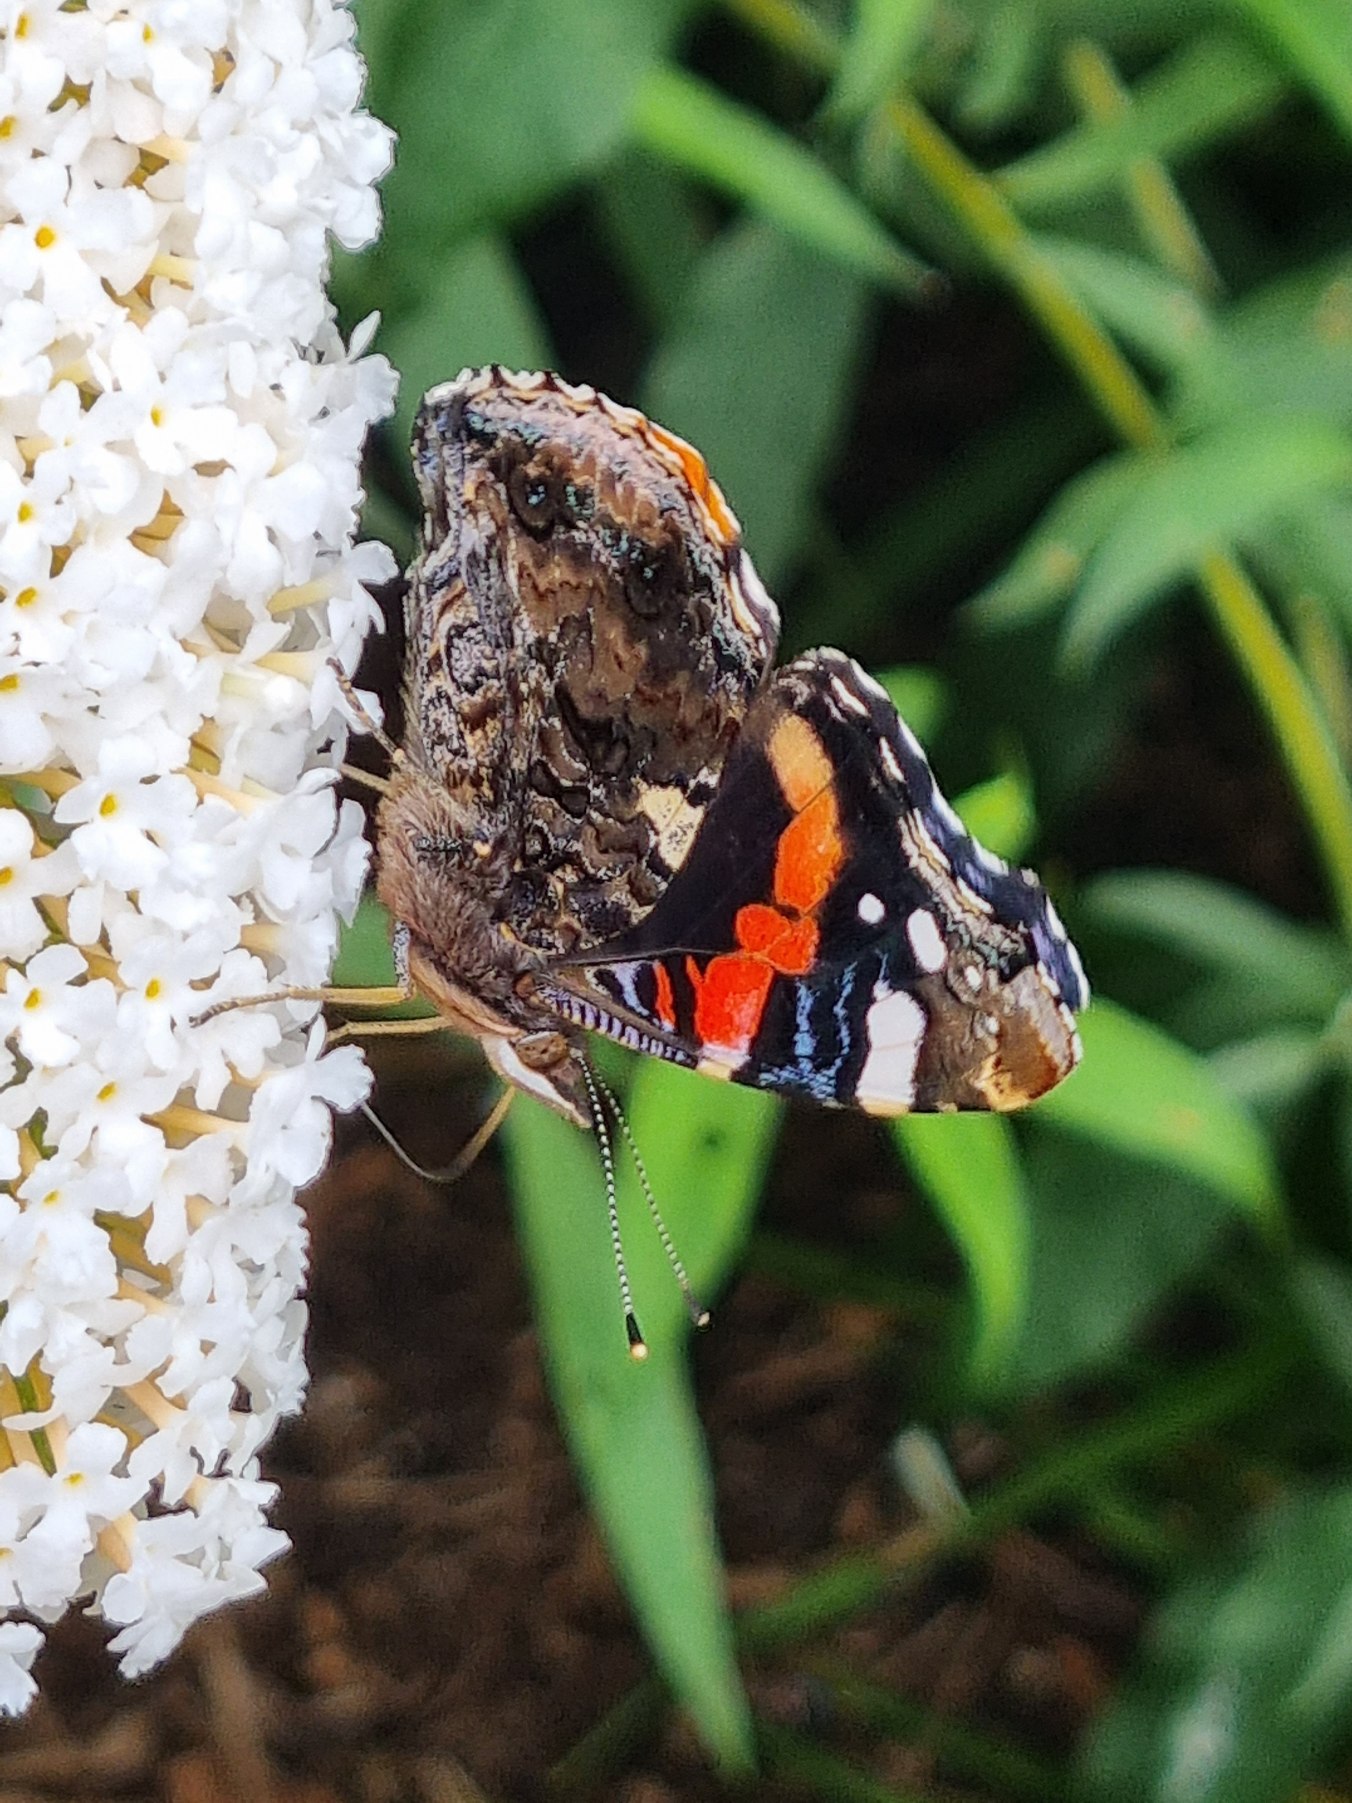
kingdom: Animalia
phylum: Arthropoda
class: Insecta
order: Lepidoptera
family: Nymphalidae
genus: Vanessa
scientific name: Vanessa atalanta
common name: Admiral
